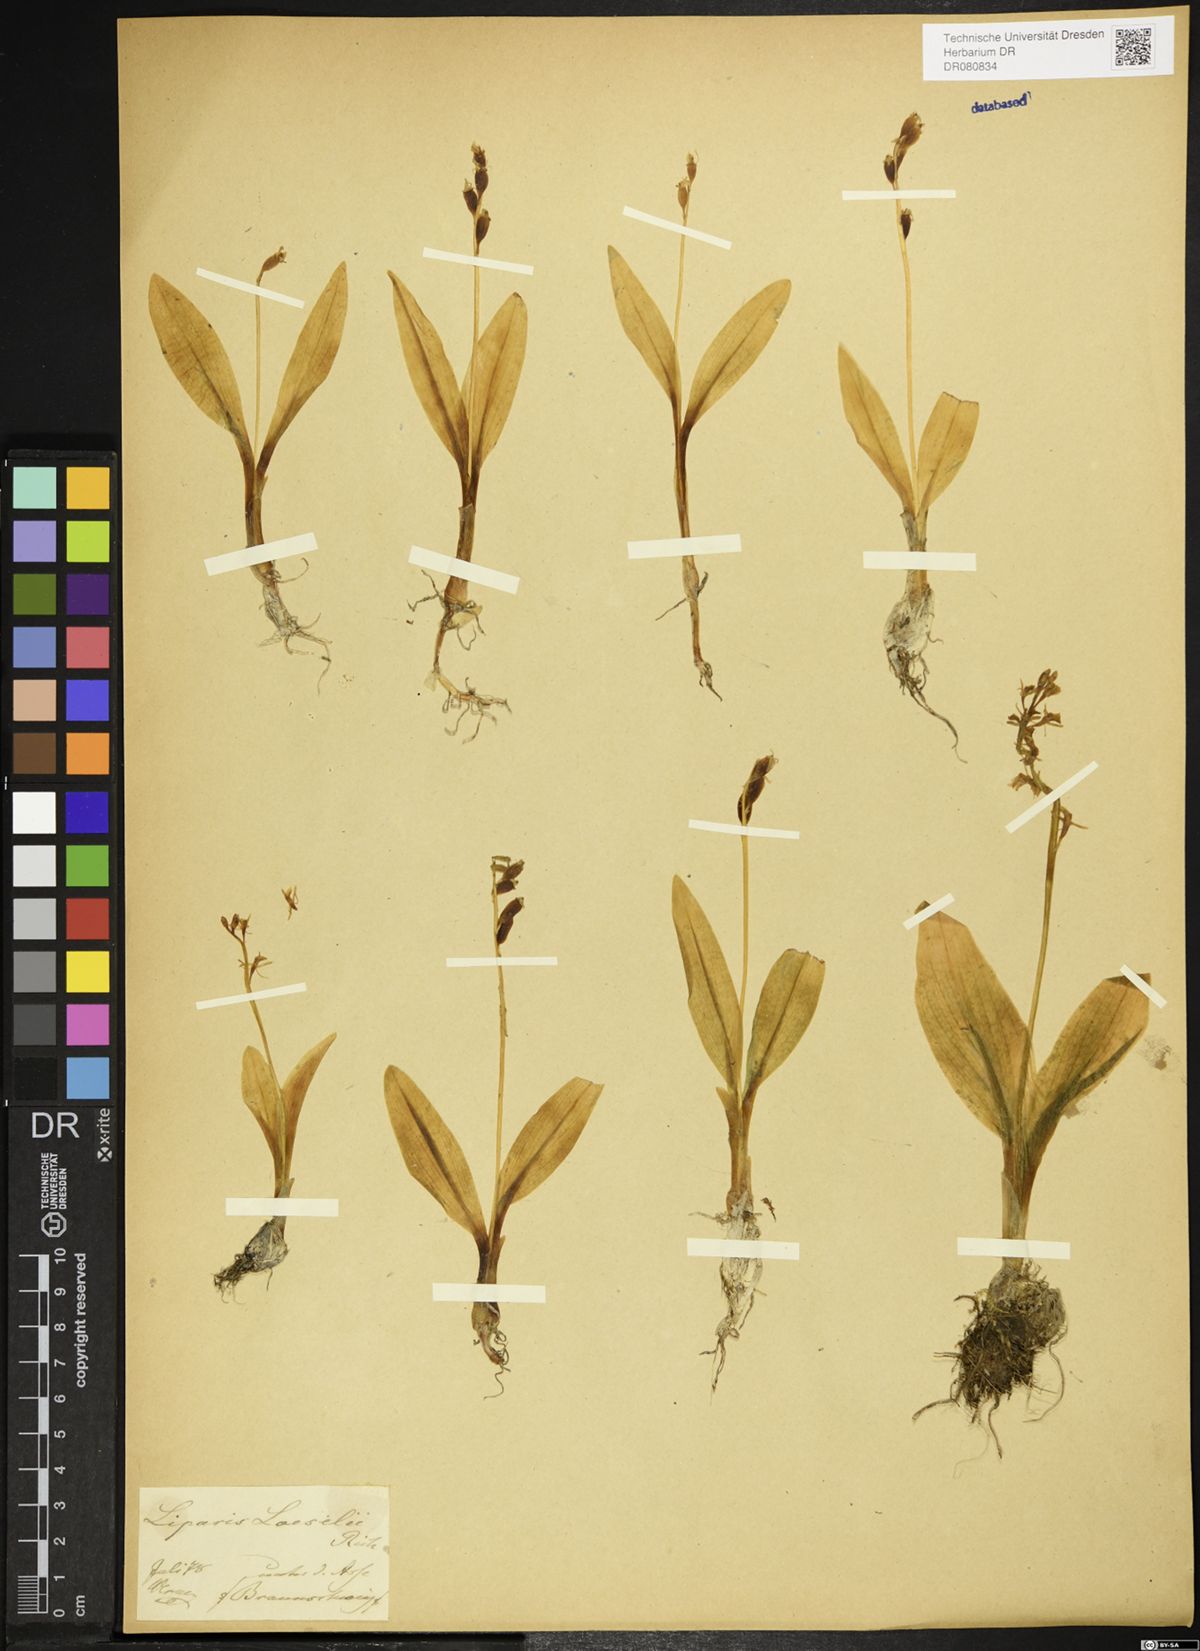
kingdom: Animalia
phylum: Arthropoda
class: Insecta
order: Coleoptera
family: Curculionidae
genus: Liparis
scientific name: Liparis loeselii
